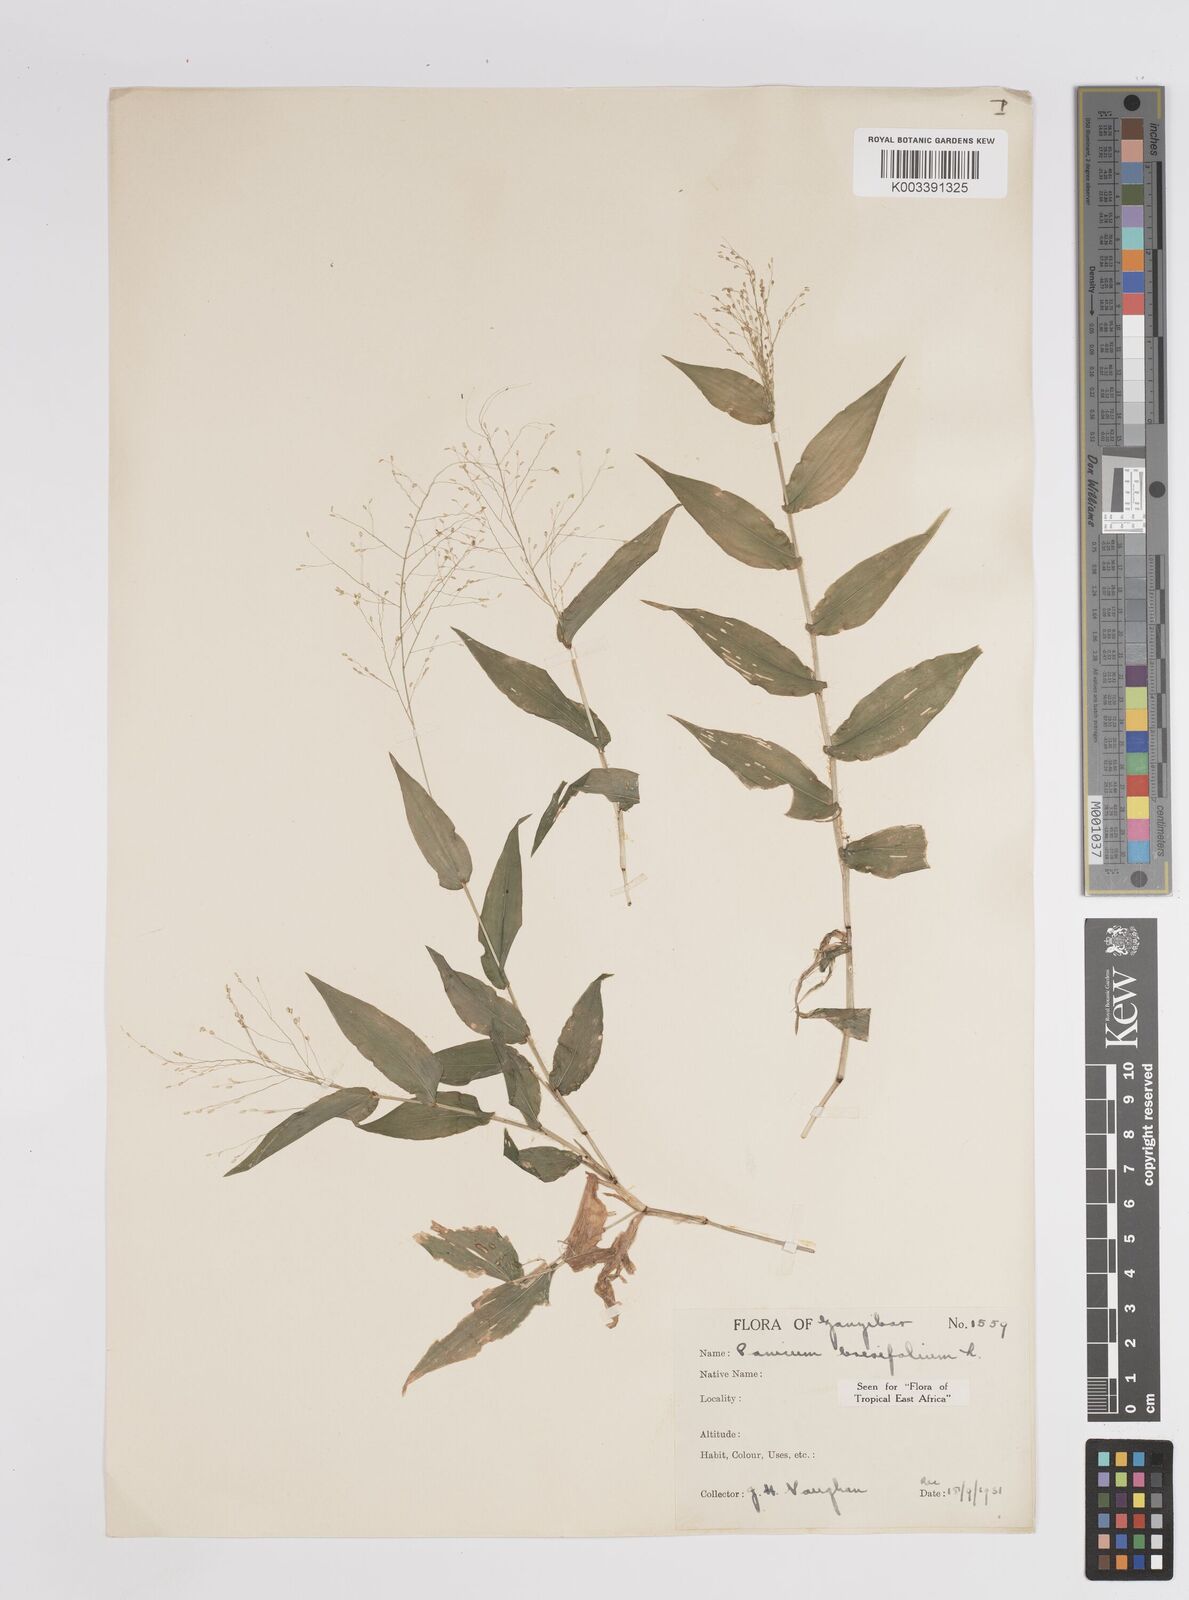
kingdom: Plantae
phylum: Tracheophyta
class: Liliopsida
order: Poales
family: Poaceae
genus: Panicum
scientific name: Panicum brevifolium
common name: Shortleaf panic grass
